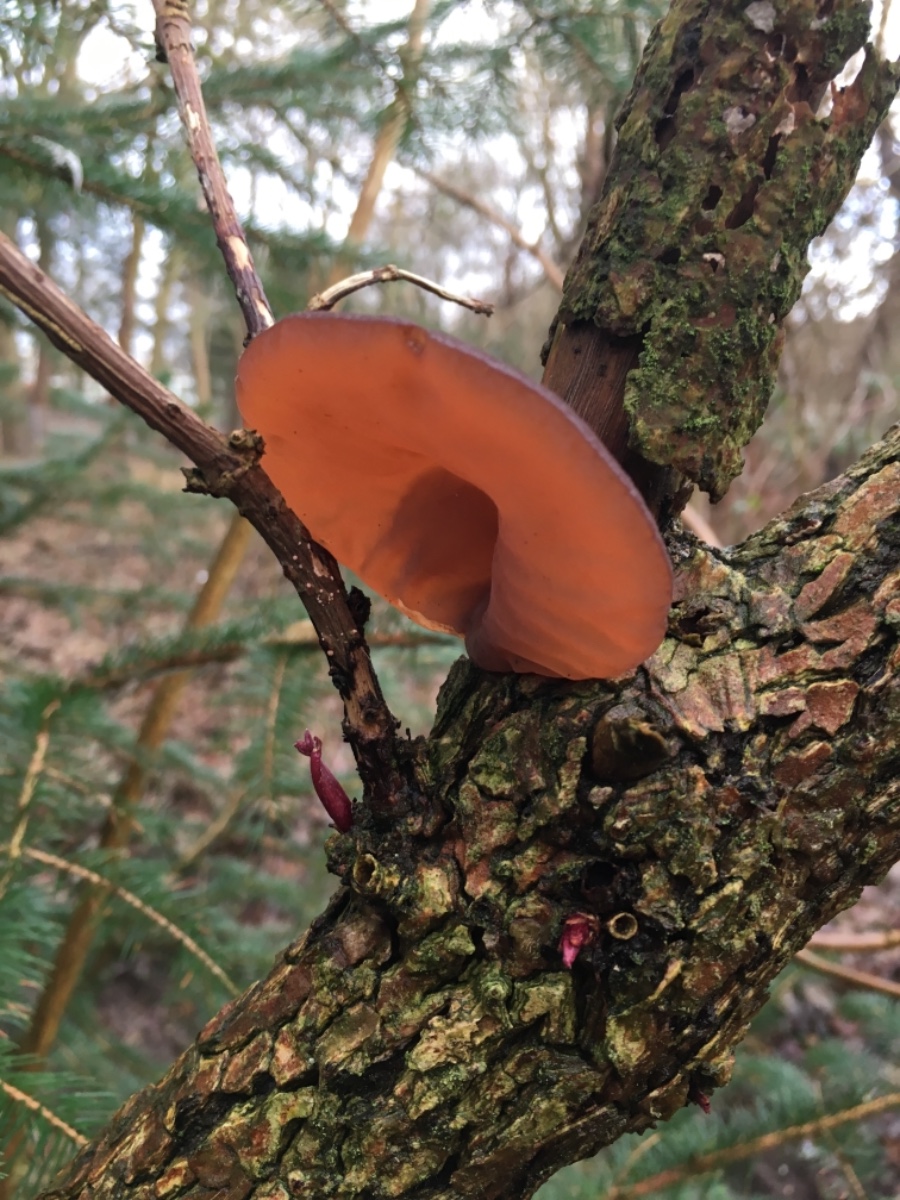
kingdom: Fungi
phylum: Basidiomycota
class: Agaricomycetes
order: Auriculariales
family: Auriculariaceae
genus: Auricularia
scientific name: Auricularia auricula-judae
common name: almindelig judasøre
